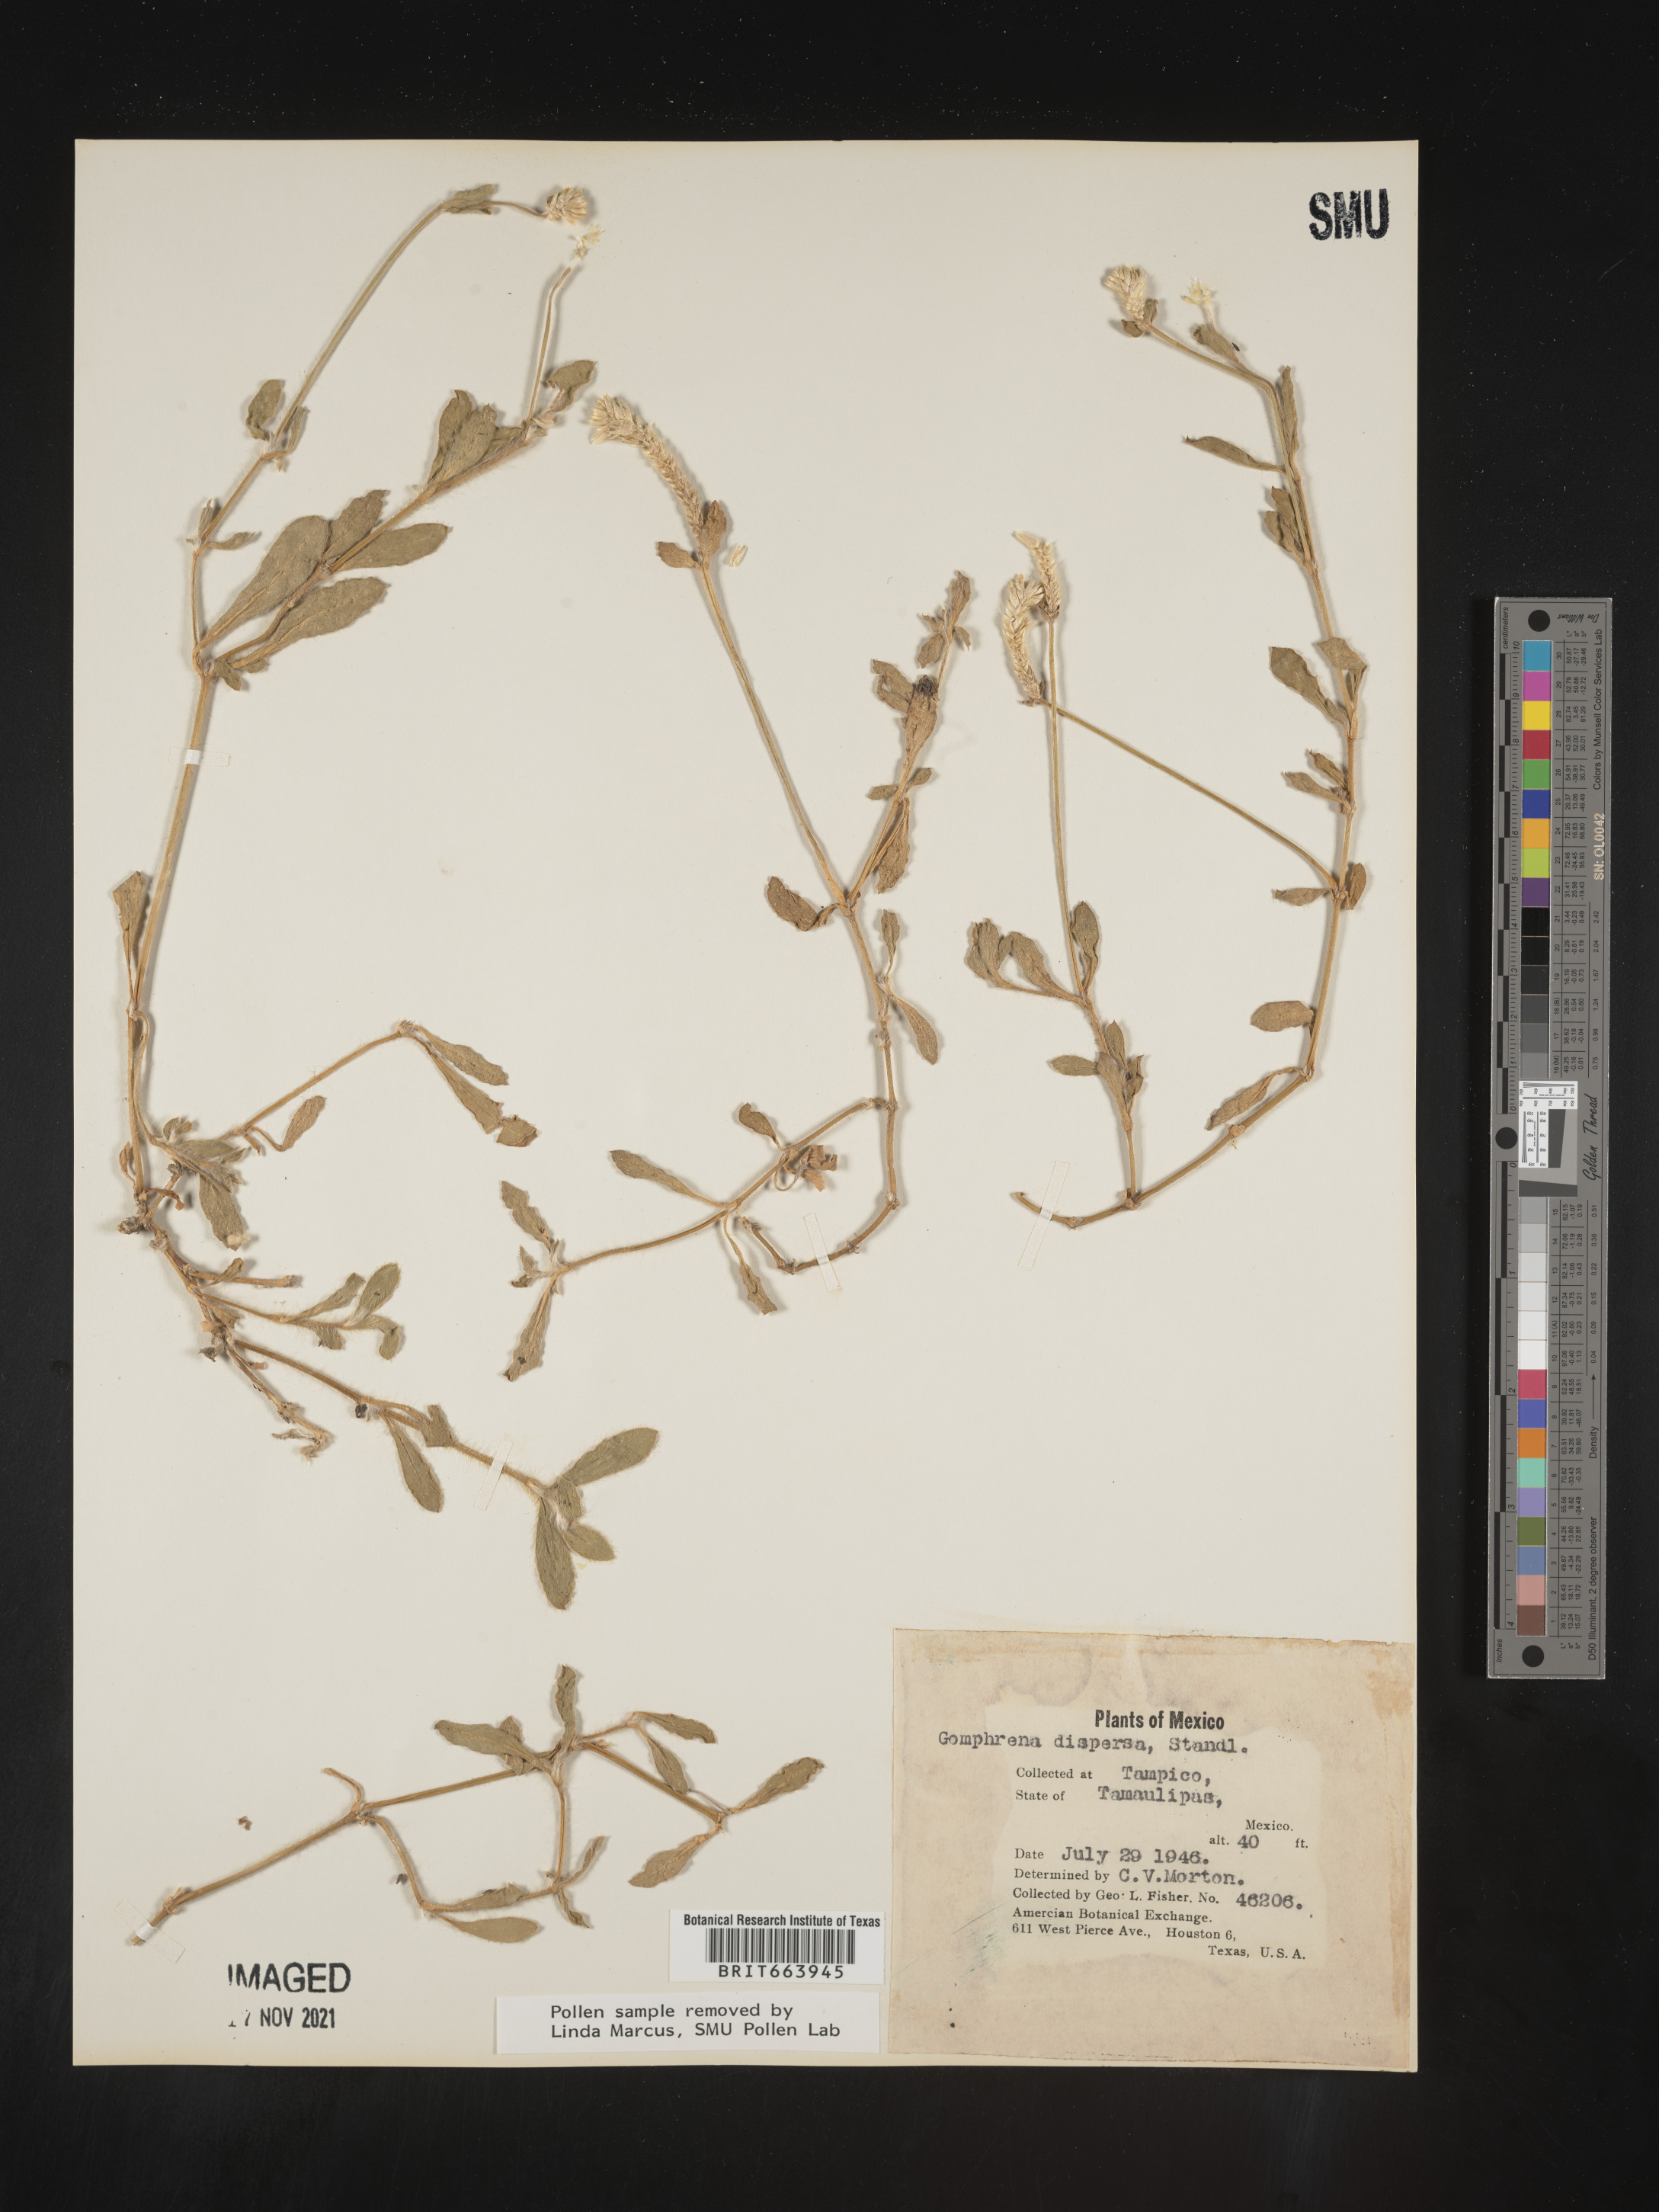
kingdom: Plantae
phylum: Tracheophyta
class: Magnoliopsida
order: Caryophyllales
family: Amaranthaceae
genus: Gomphrena
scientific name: Gomphrena
